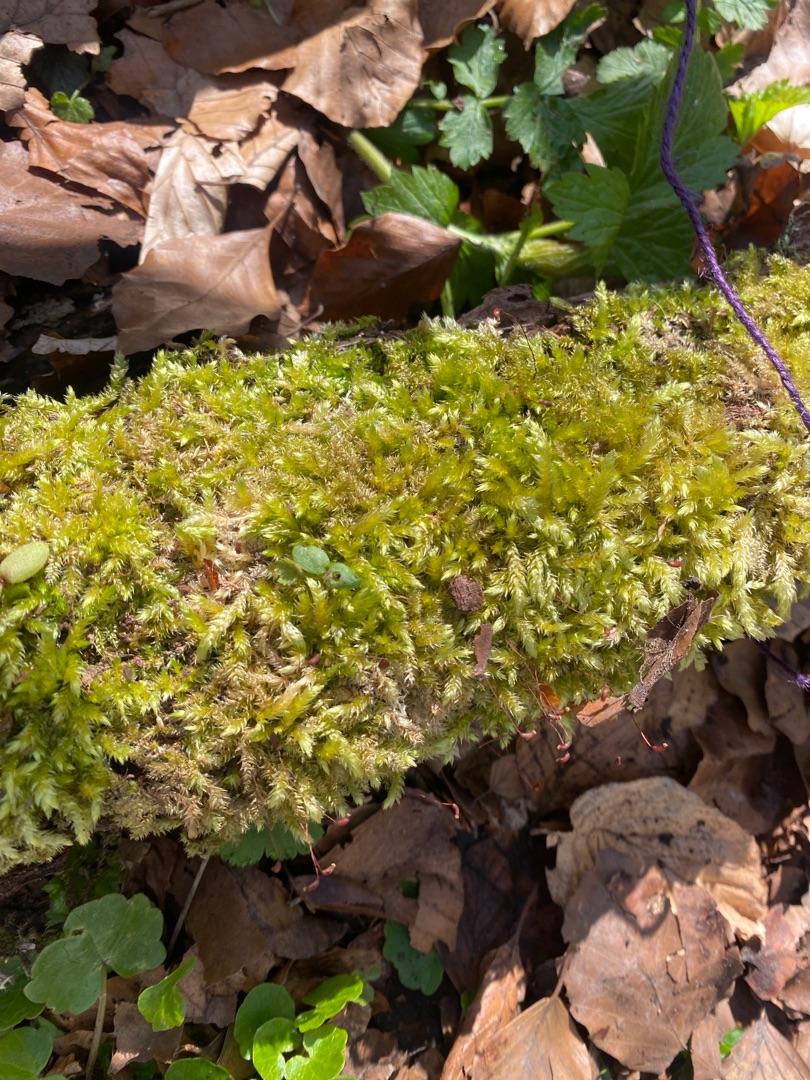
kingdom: Plantae
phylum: Bryophyta
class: Bryopsida
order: Hypnales
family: Brachytheciaceae
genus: Brachythecium
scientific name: Brachythecium rutabulum
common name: Almindelig kortkapsel
